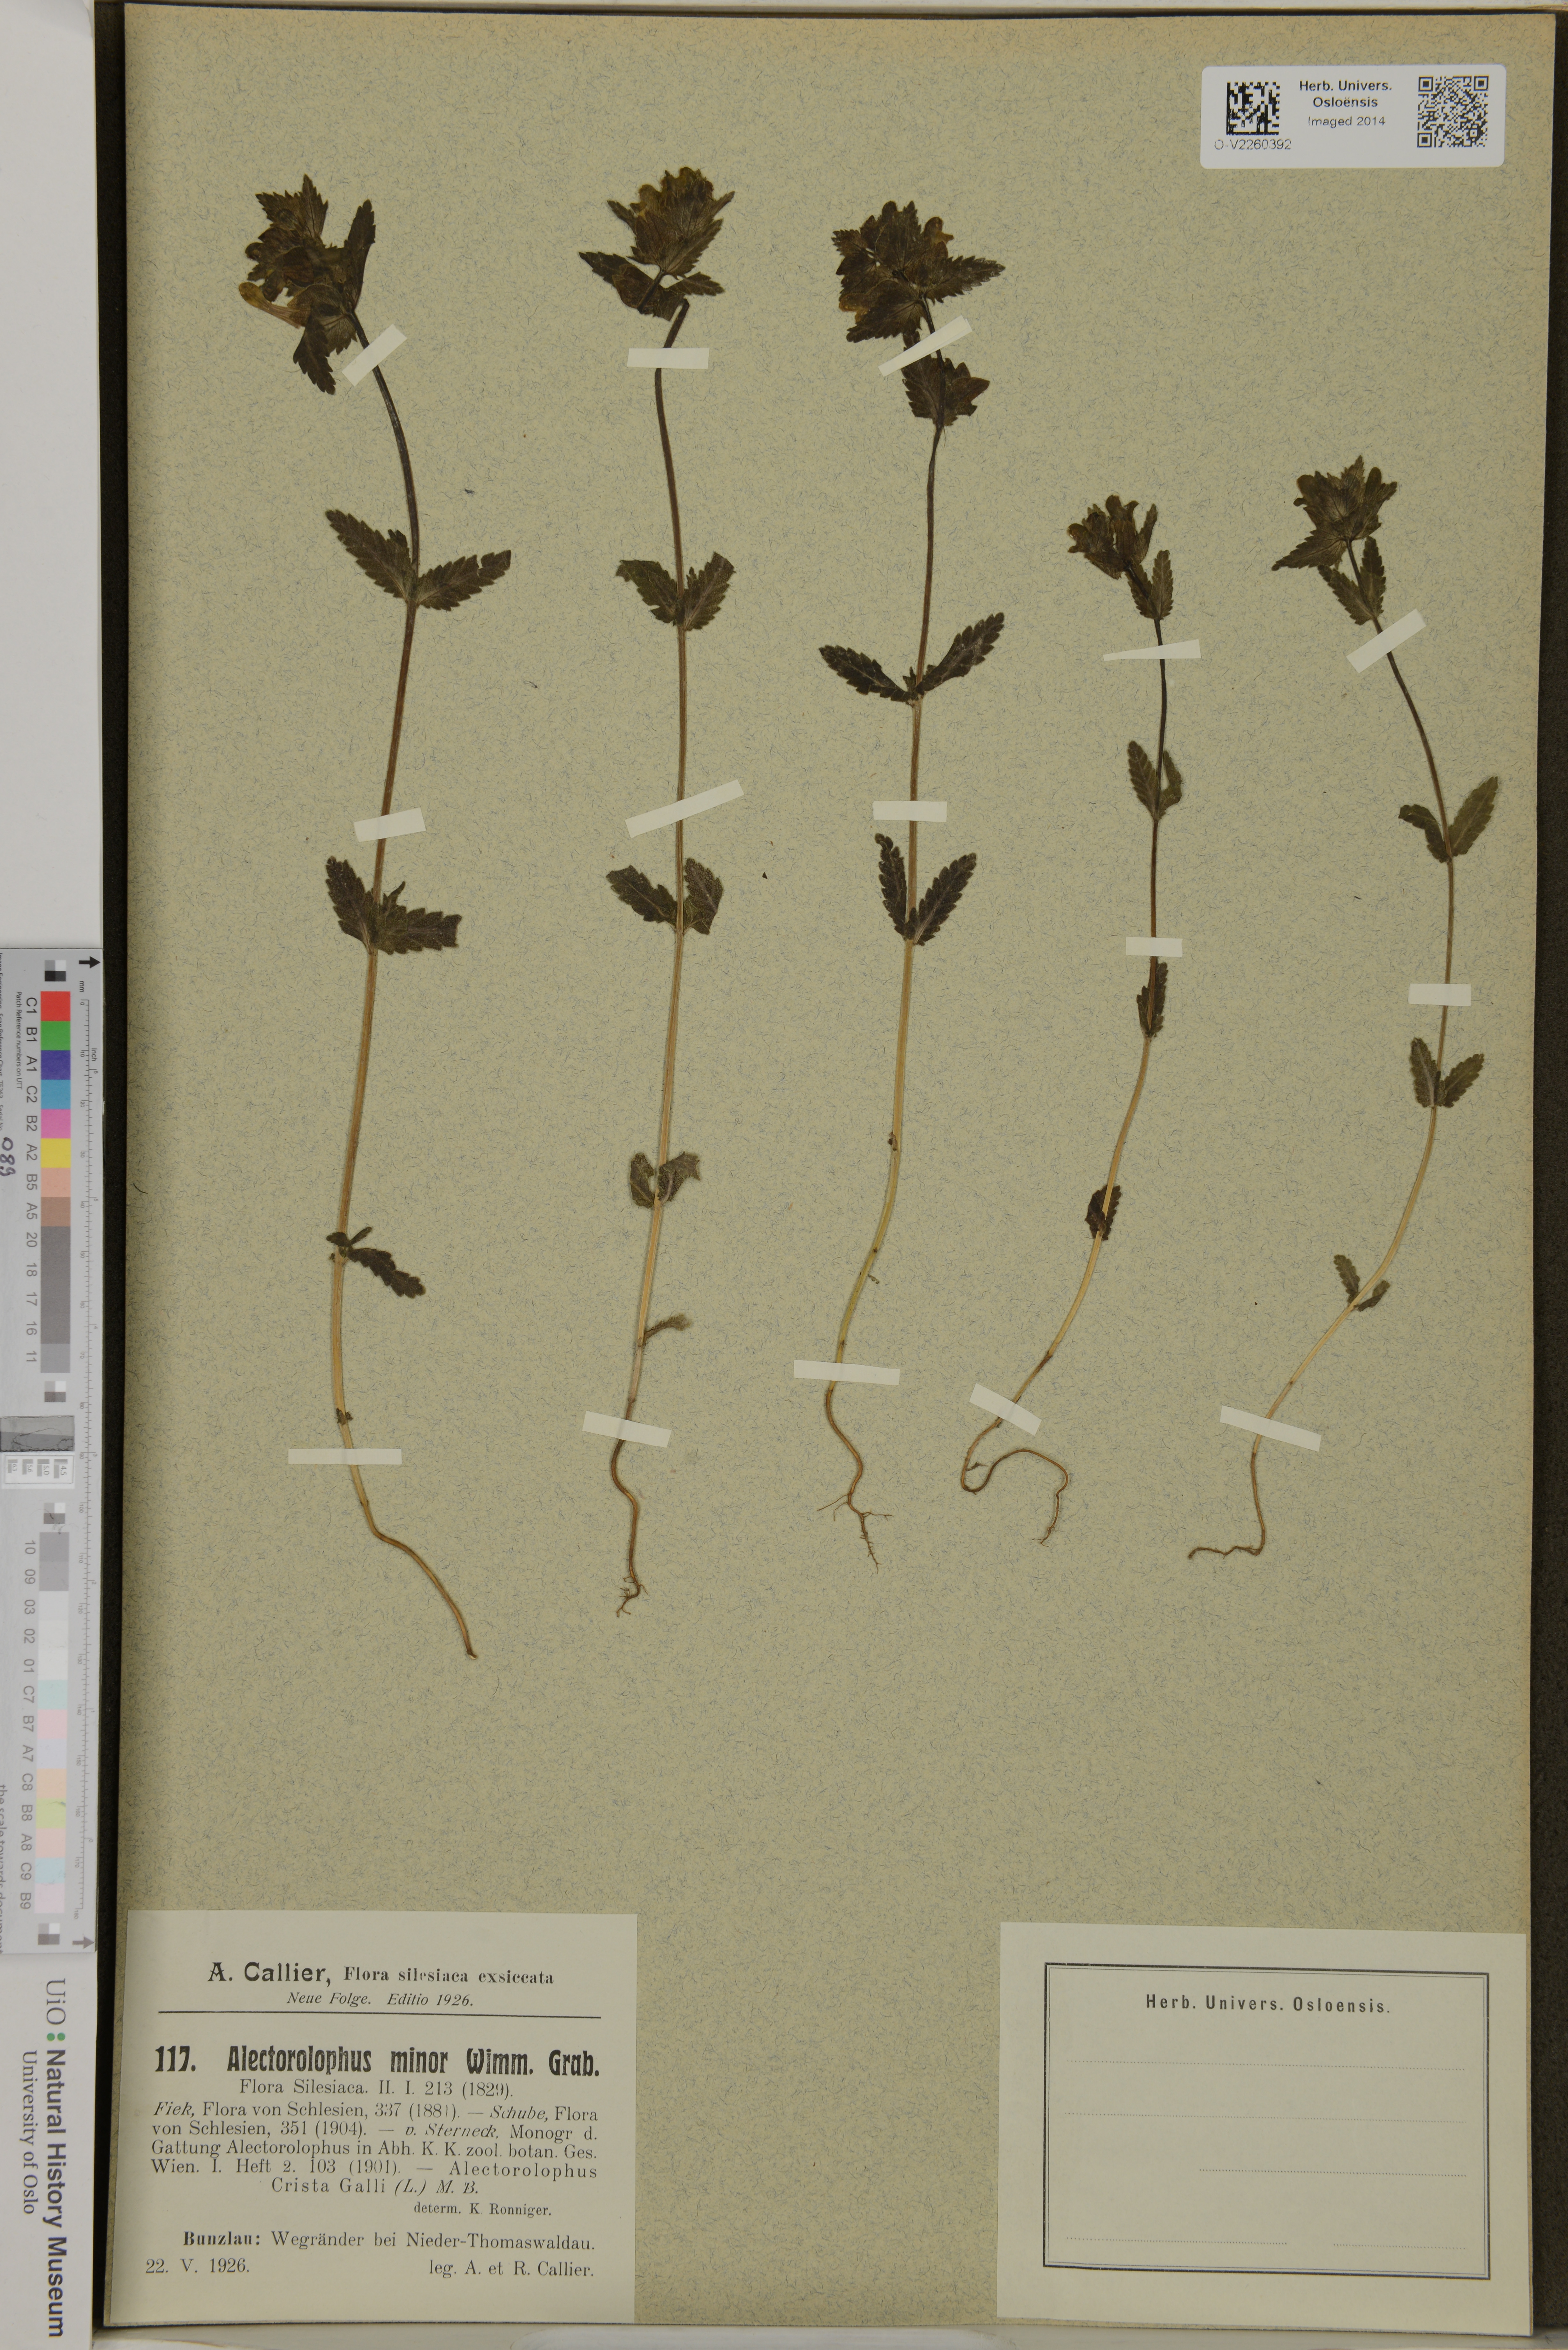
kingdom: Plantae
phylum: Tracheophyta
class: Magnoliopsida
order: Lamiales
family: Orobanchaceae
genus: Rhinanthus
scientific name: Rhinanthus minor
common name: Yellow-rattle
